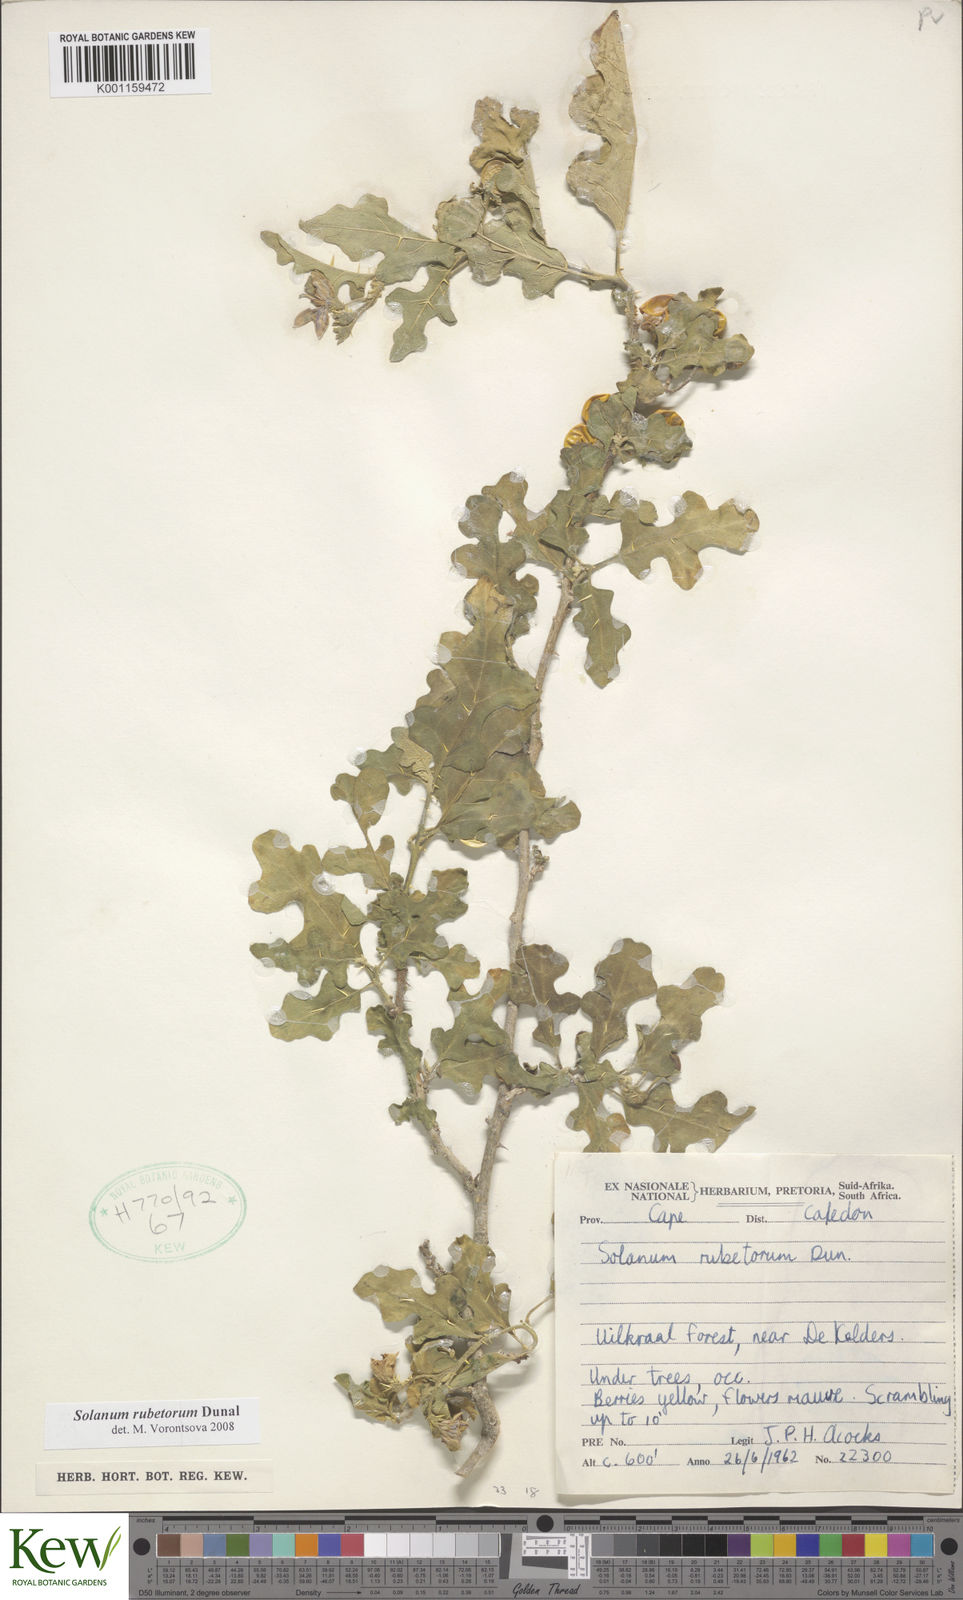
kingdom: Plantae
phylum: Tracheophyta
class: Magnoliopsida
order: Solanales
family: Solanaceae
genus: Solanum
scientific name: Solanum rubetorum
